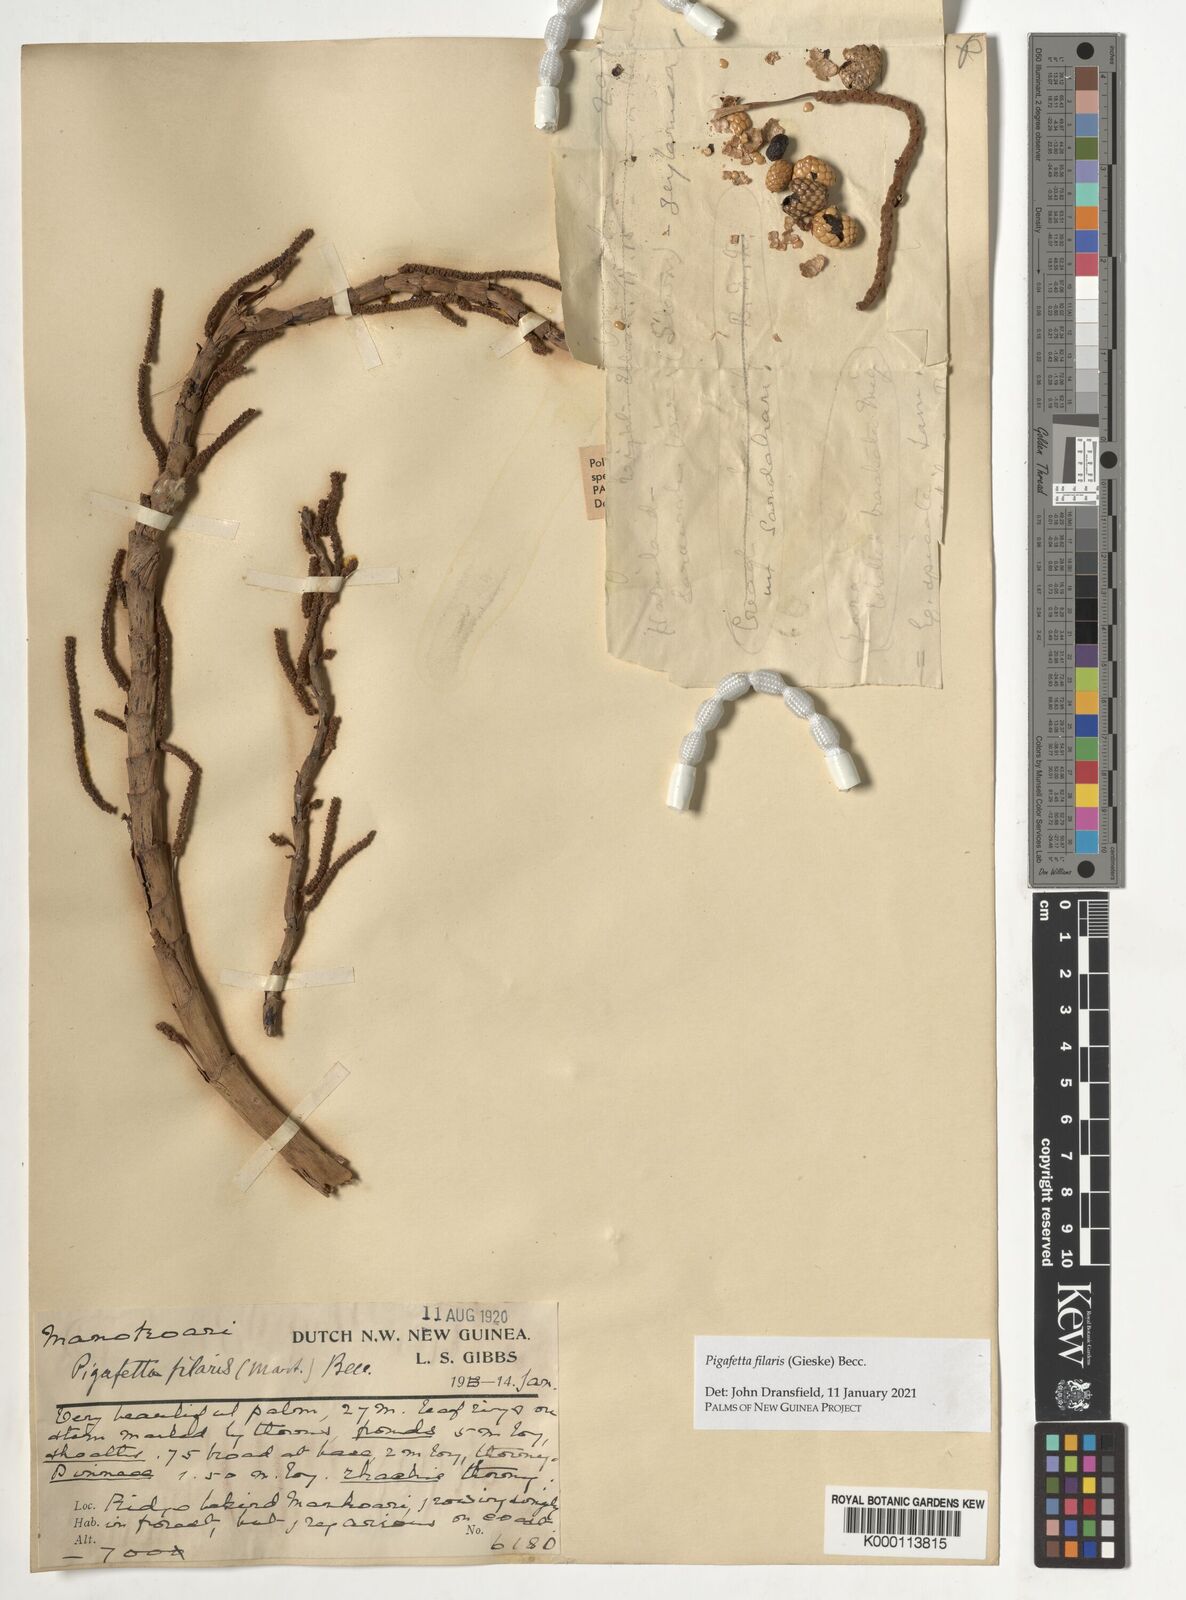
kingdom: Plantae
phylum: Tracheophyta
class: Liliopsida
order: Arecales
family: Arecaceae
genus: Pigafetta
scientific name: Pigafetta filaris
